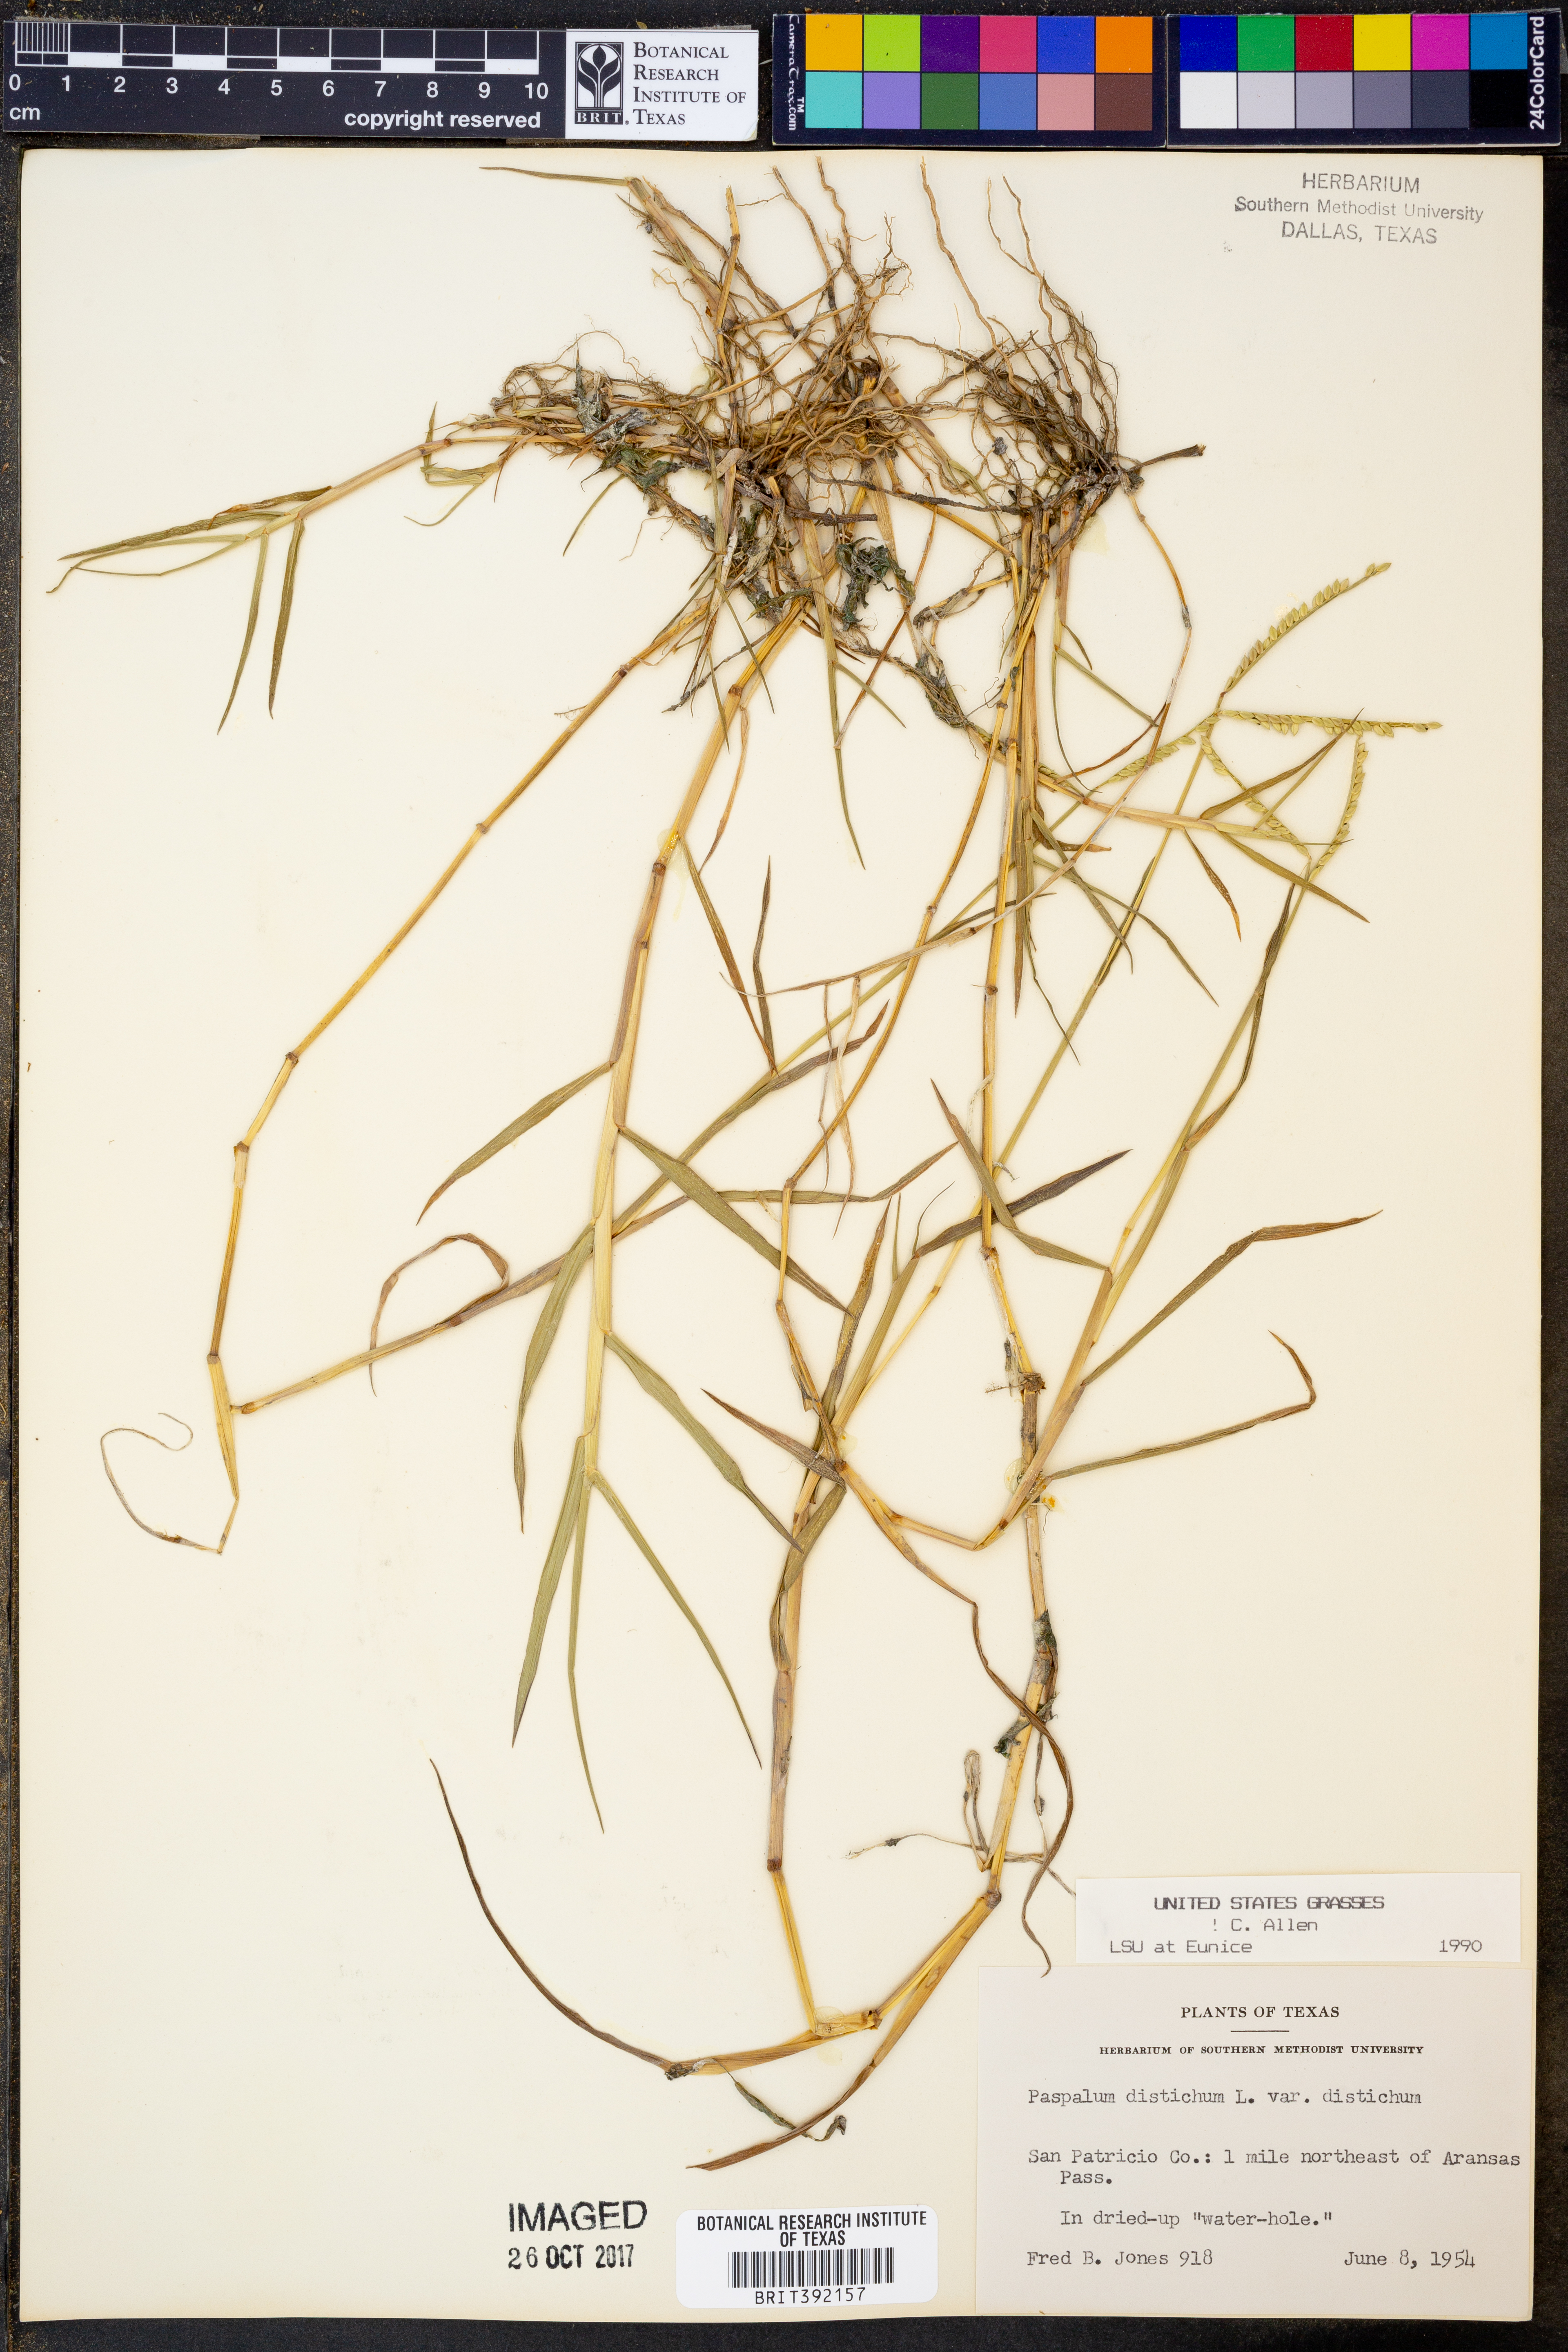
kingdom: Plantae
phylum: Tracheophyta
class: Liliopsida
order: Poales
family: Poaceae
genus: Paspalum
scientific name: Paspalum distichum
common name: Knotgrass
